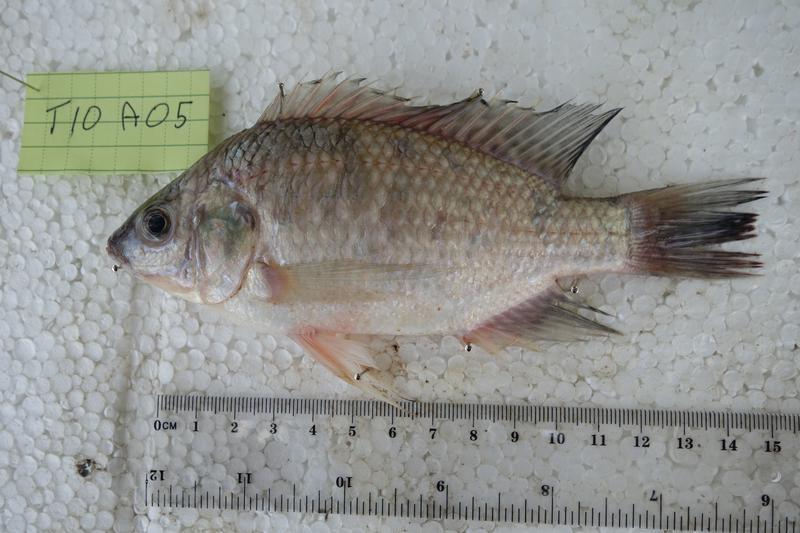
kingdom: Animalia
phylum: Chordata
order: Perciformes
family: Cichlidae
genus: Oreochromis
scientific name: Oreochromis rukwaensis
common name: Lake rukwa tilapia
